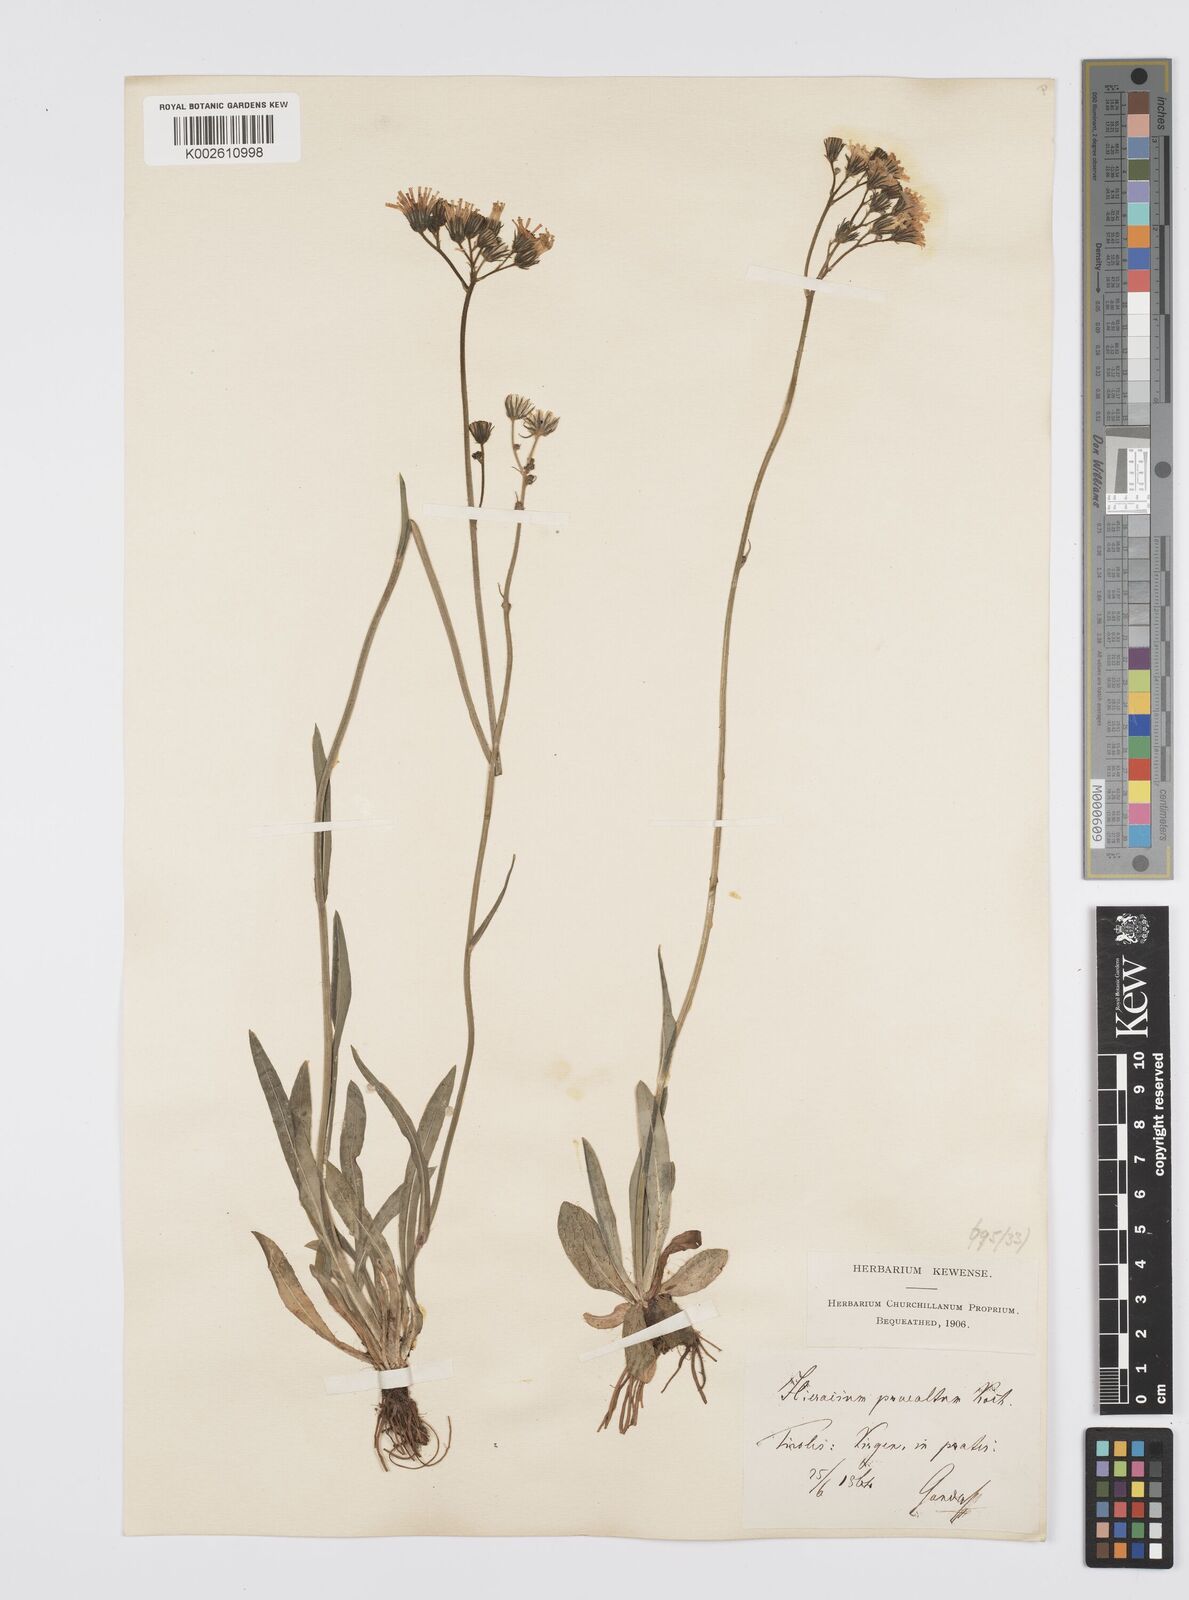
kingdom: Plantae
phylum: Tracheophyta
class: Magnoliopsida
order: Asterales
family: Asteraceae
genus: Pilosella
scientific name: Pilosella piloselloides
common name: Glaucous king-devil
